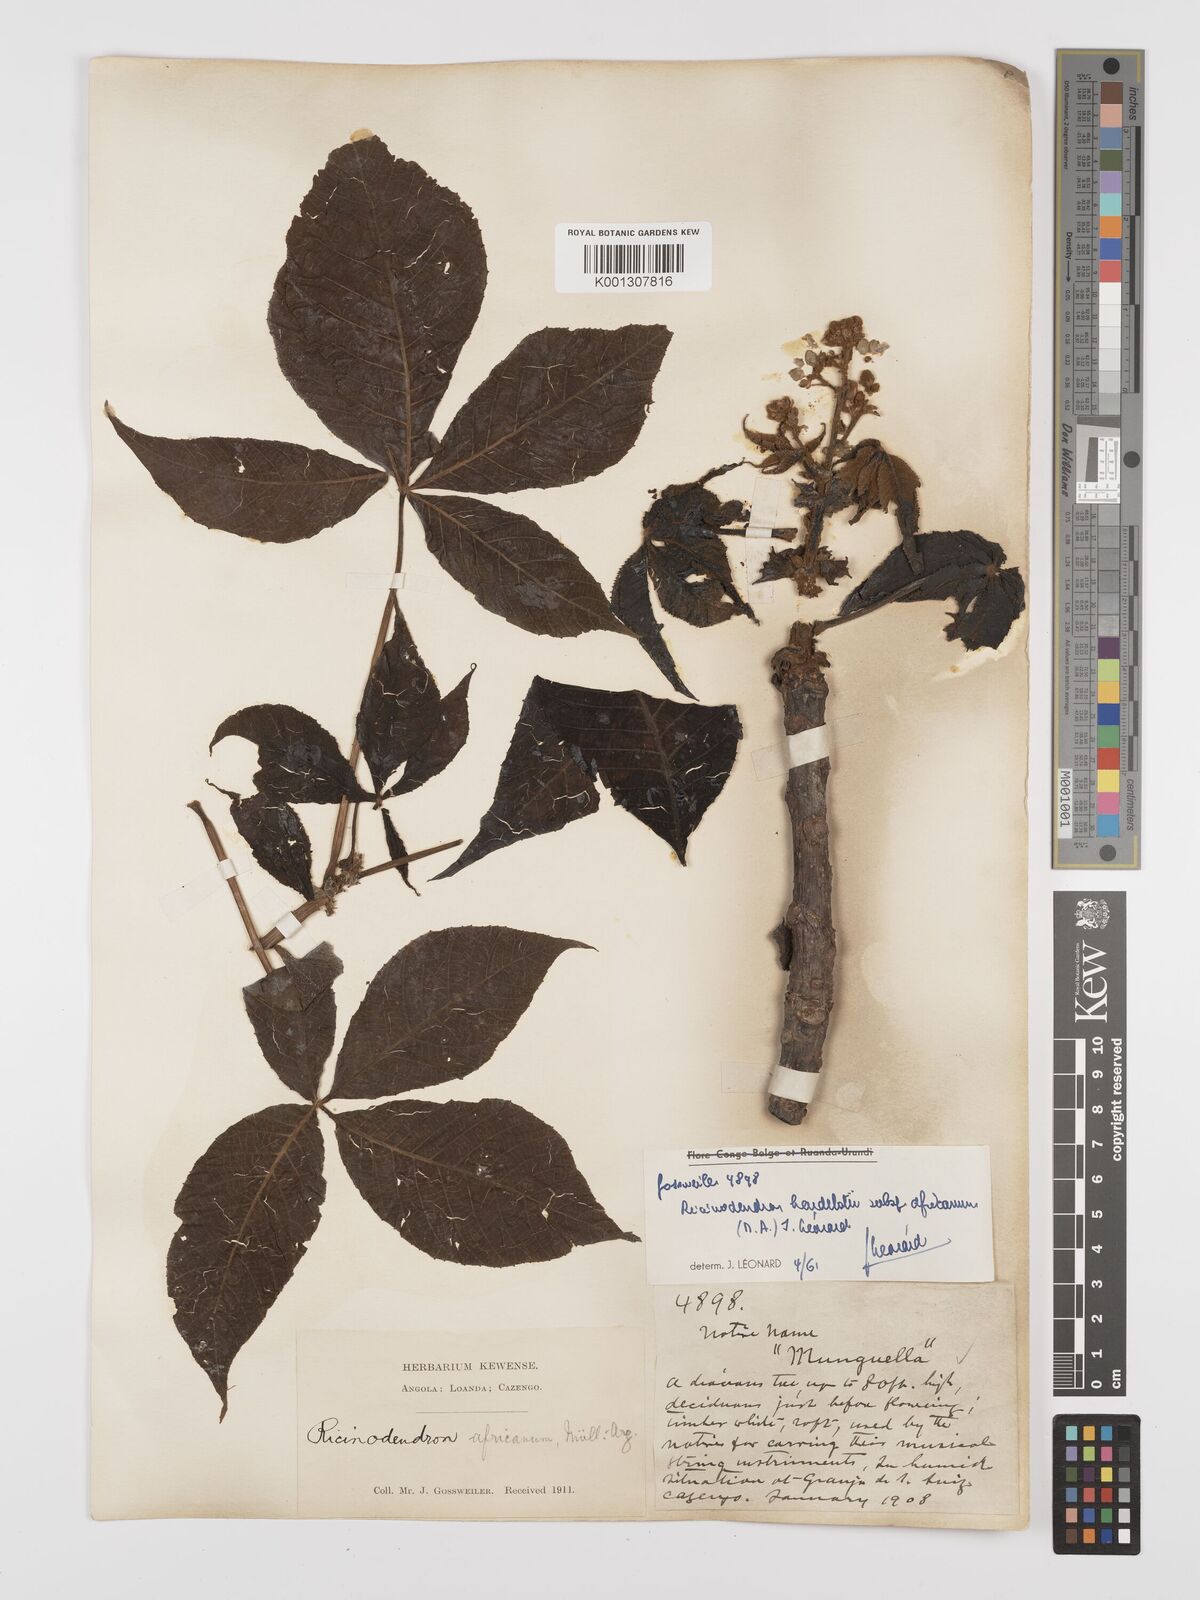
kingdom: Plantae
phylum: Tracheophyta
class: Magnoliopsida
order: Malpighiales
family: Euphorbiaceae
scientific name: Euphorbiaceae
